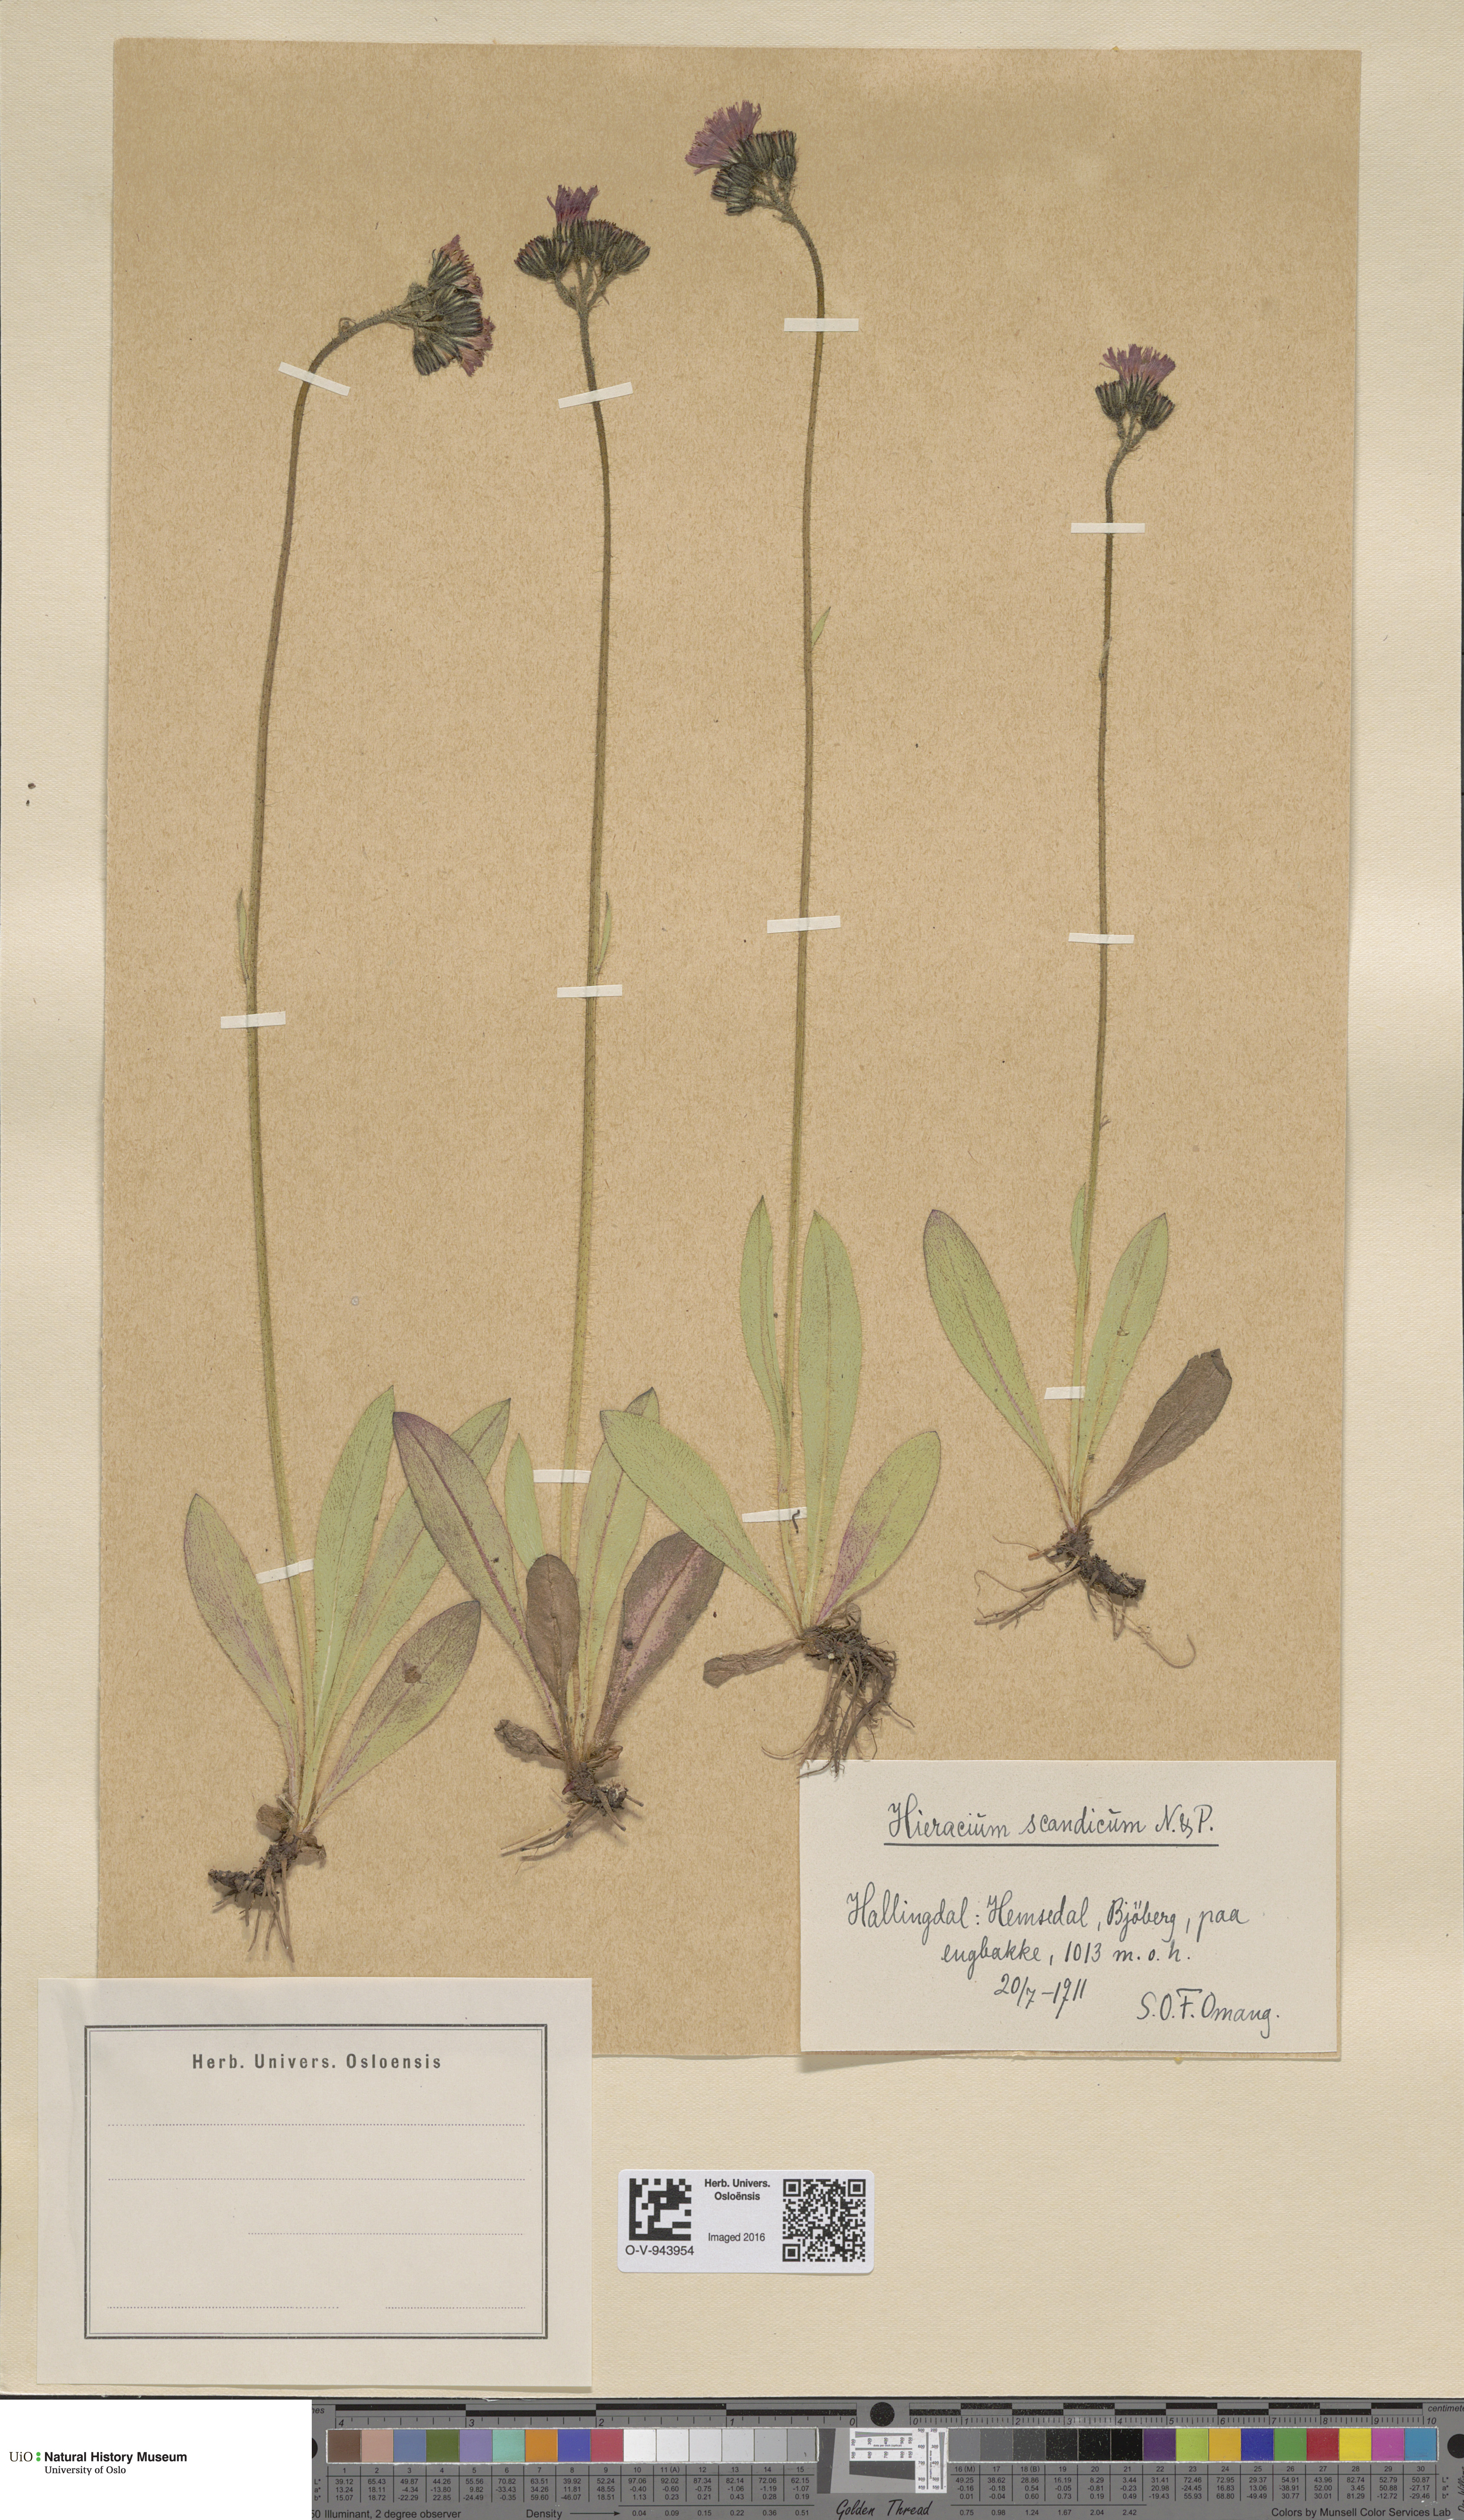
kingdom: Plantae
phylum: Tracheophyta
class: Magnoliopsida
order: Asterales
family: Asteraceae
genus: Pilosella
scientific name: Pilosella aurantiaca
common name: Fox-and-cubs
